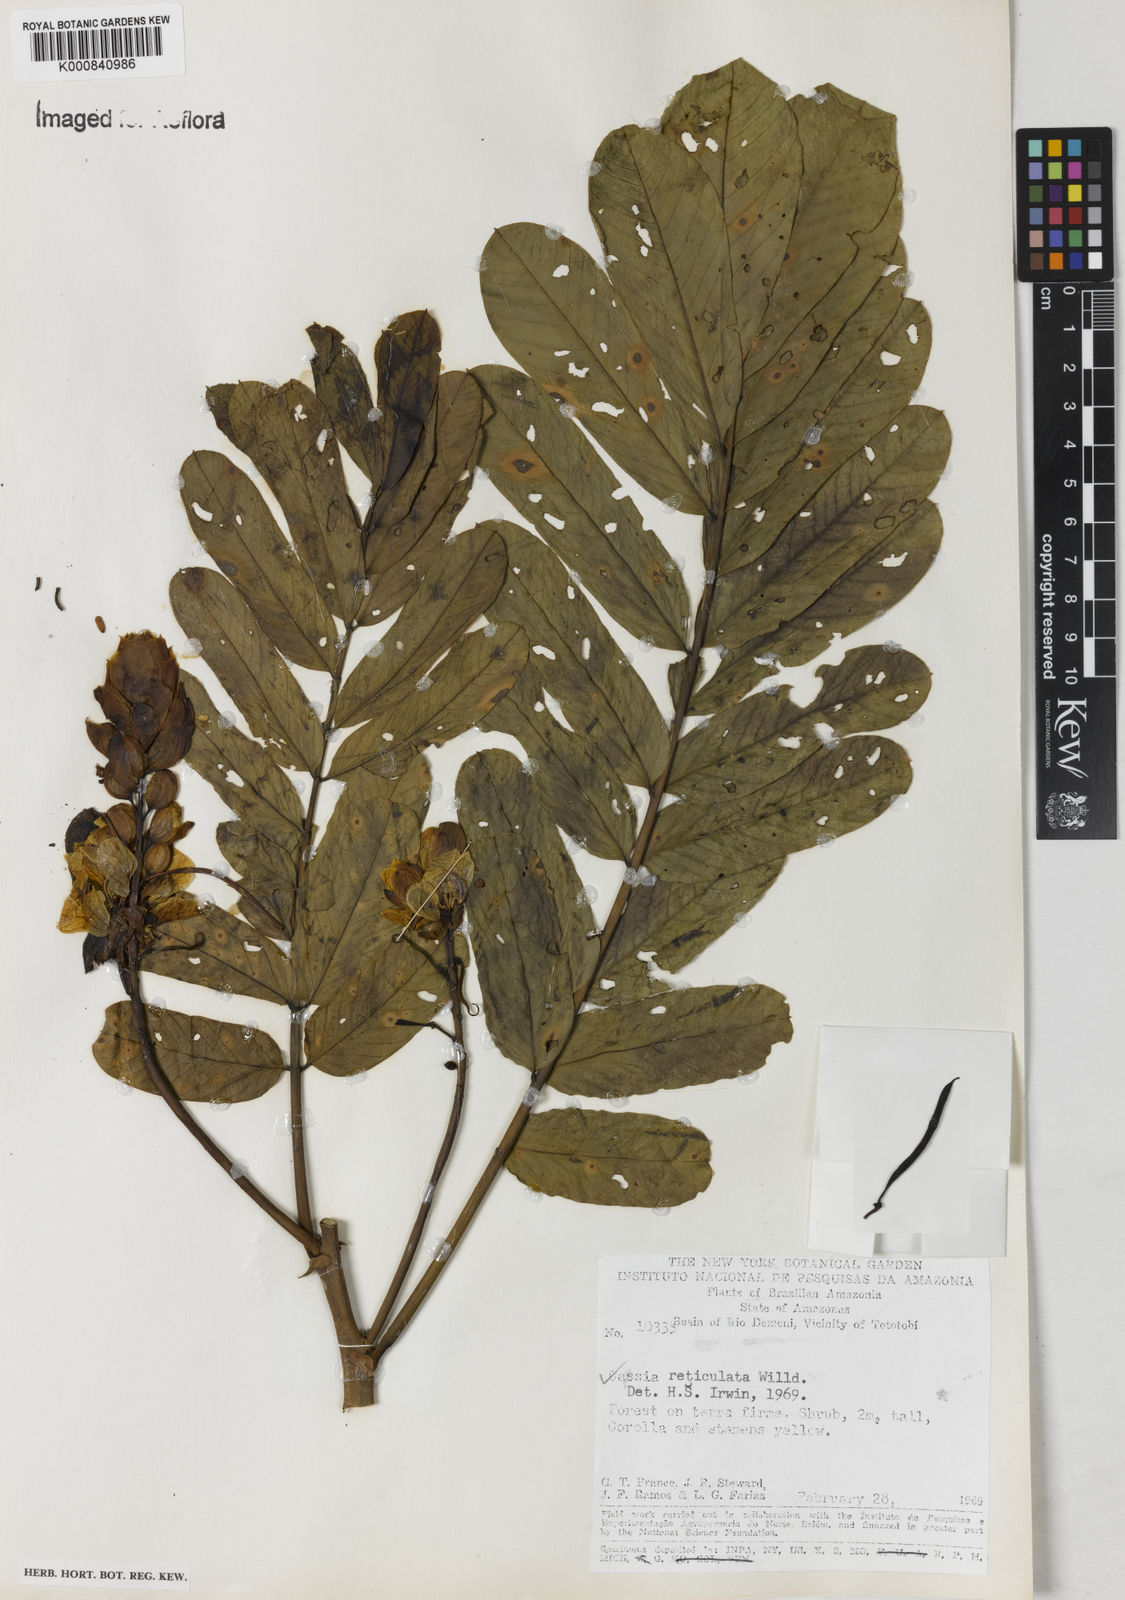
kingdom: Plantae
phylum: Tracheophyta
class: Magnoliopsida
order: Fabales
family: Fabaceae
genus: Senna
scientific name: Senna reticulata
